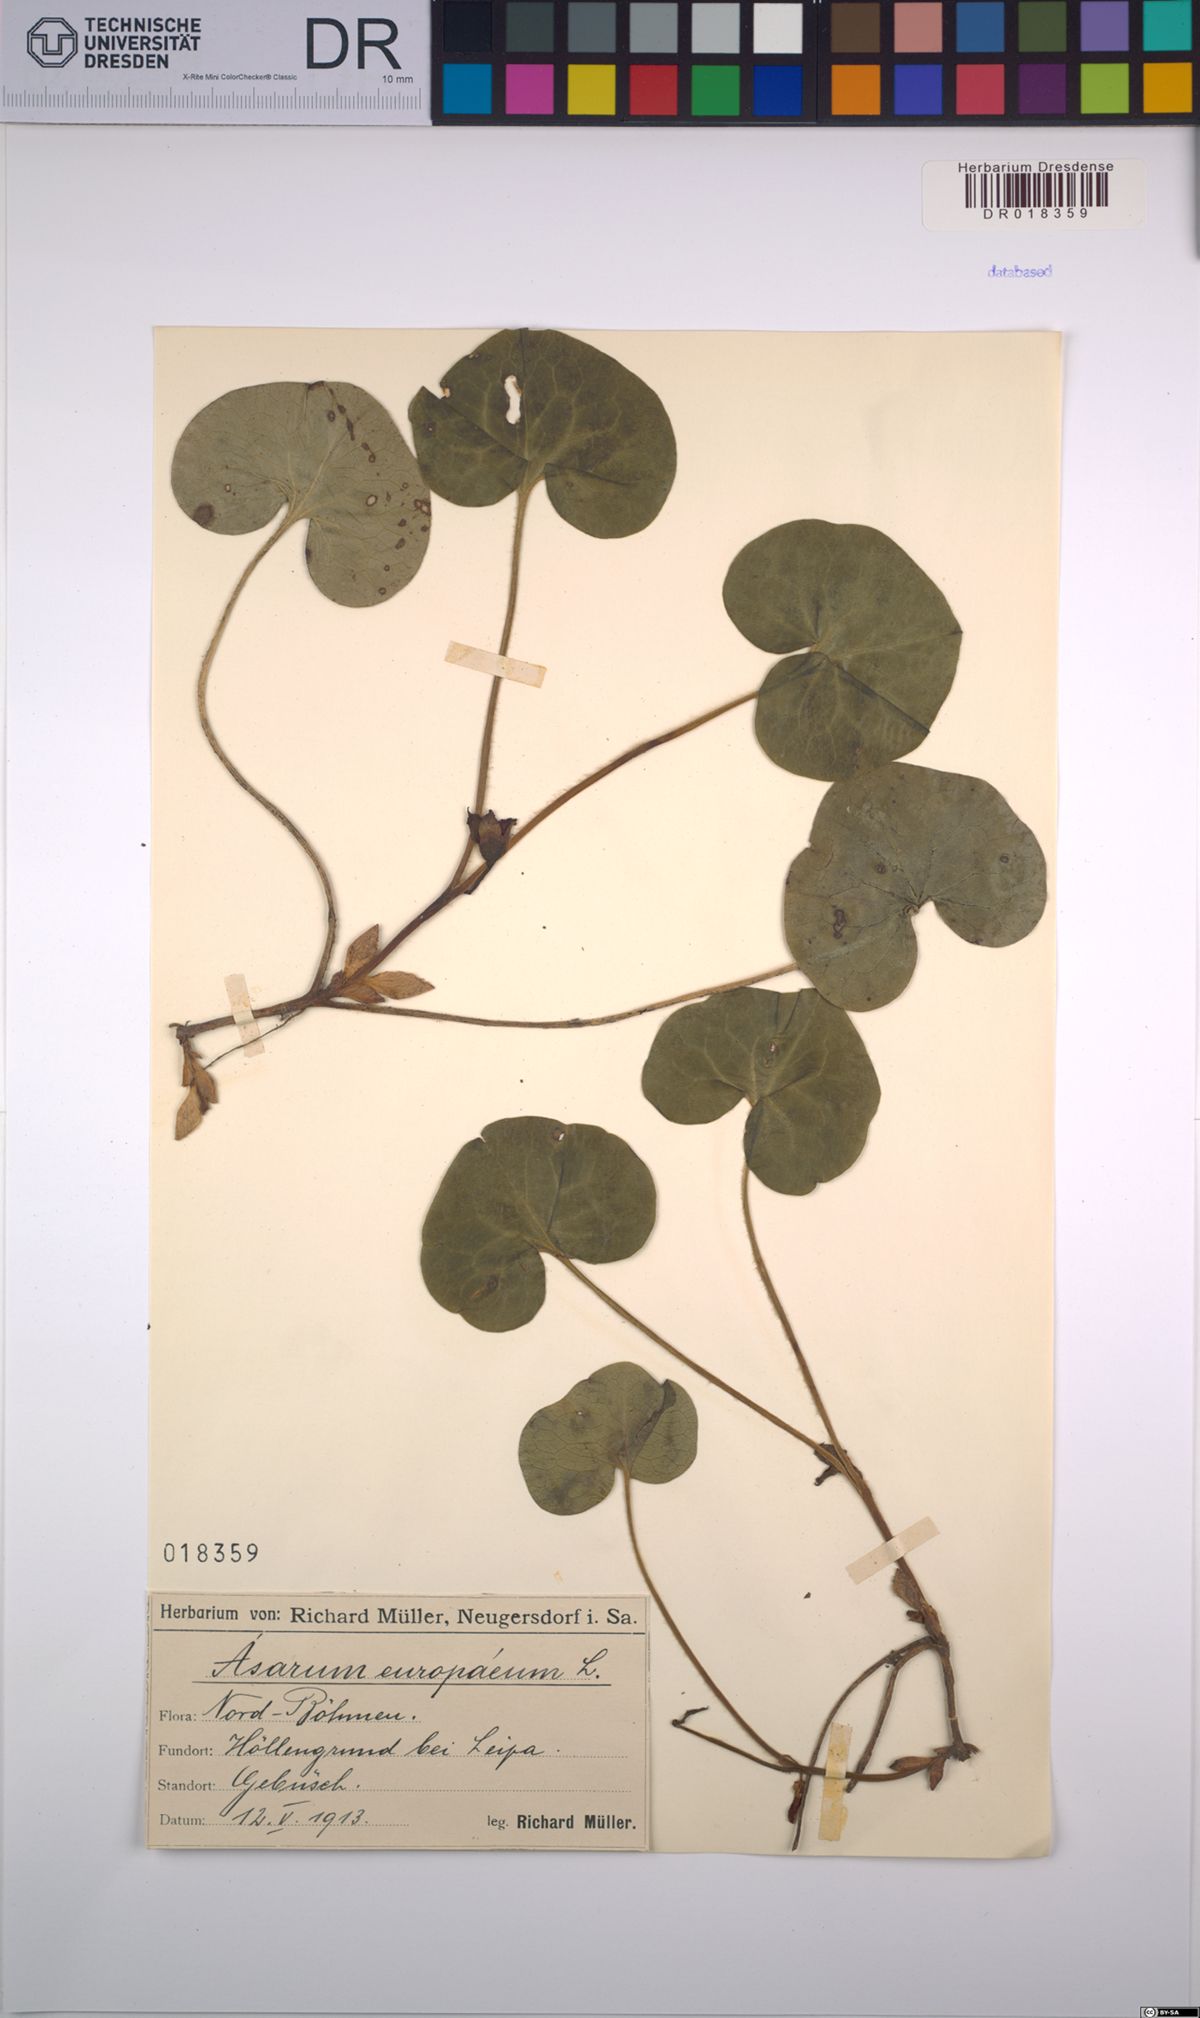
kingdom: Plantae
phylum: Tracheophyta
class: Magnoliopsida
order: Piperales
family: Aristolochiaceae
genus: Asarum
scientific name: Asarum europaeum
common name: Asarabacca
